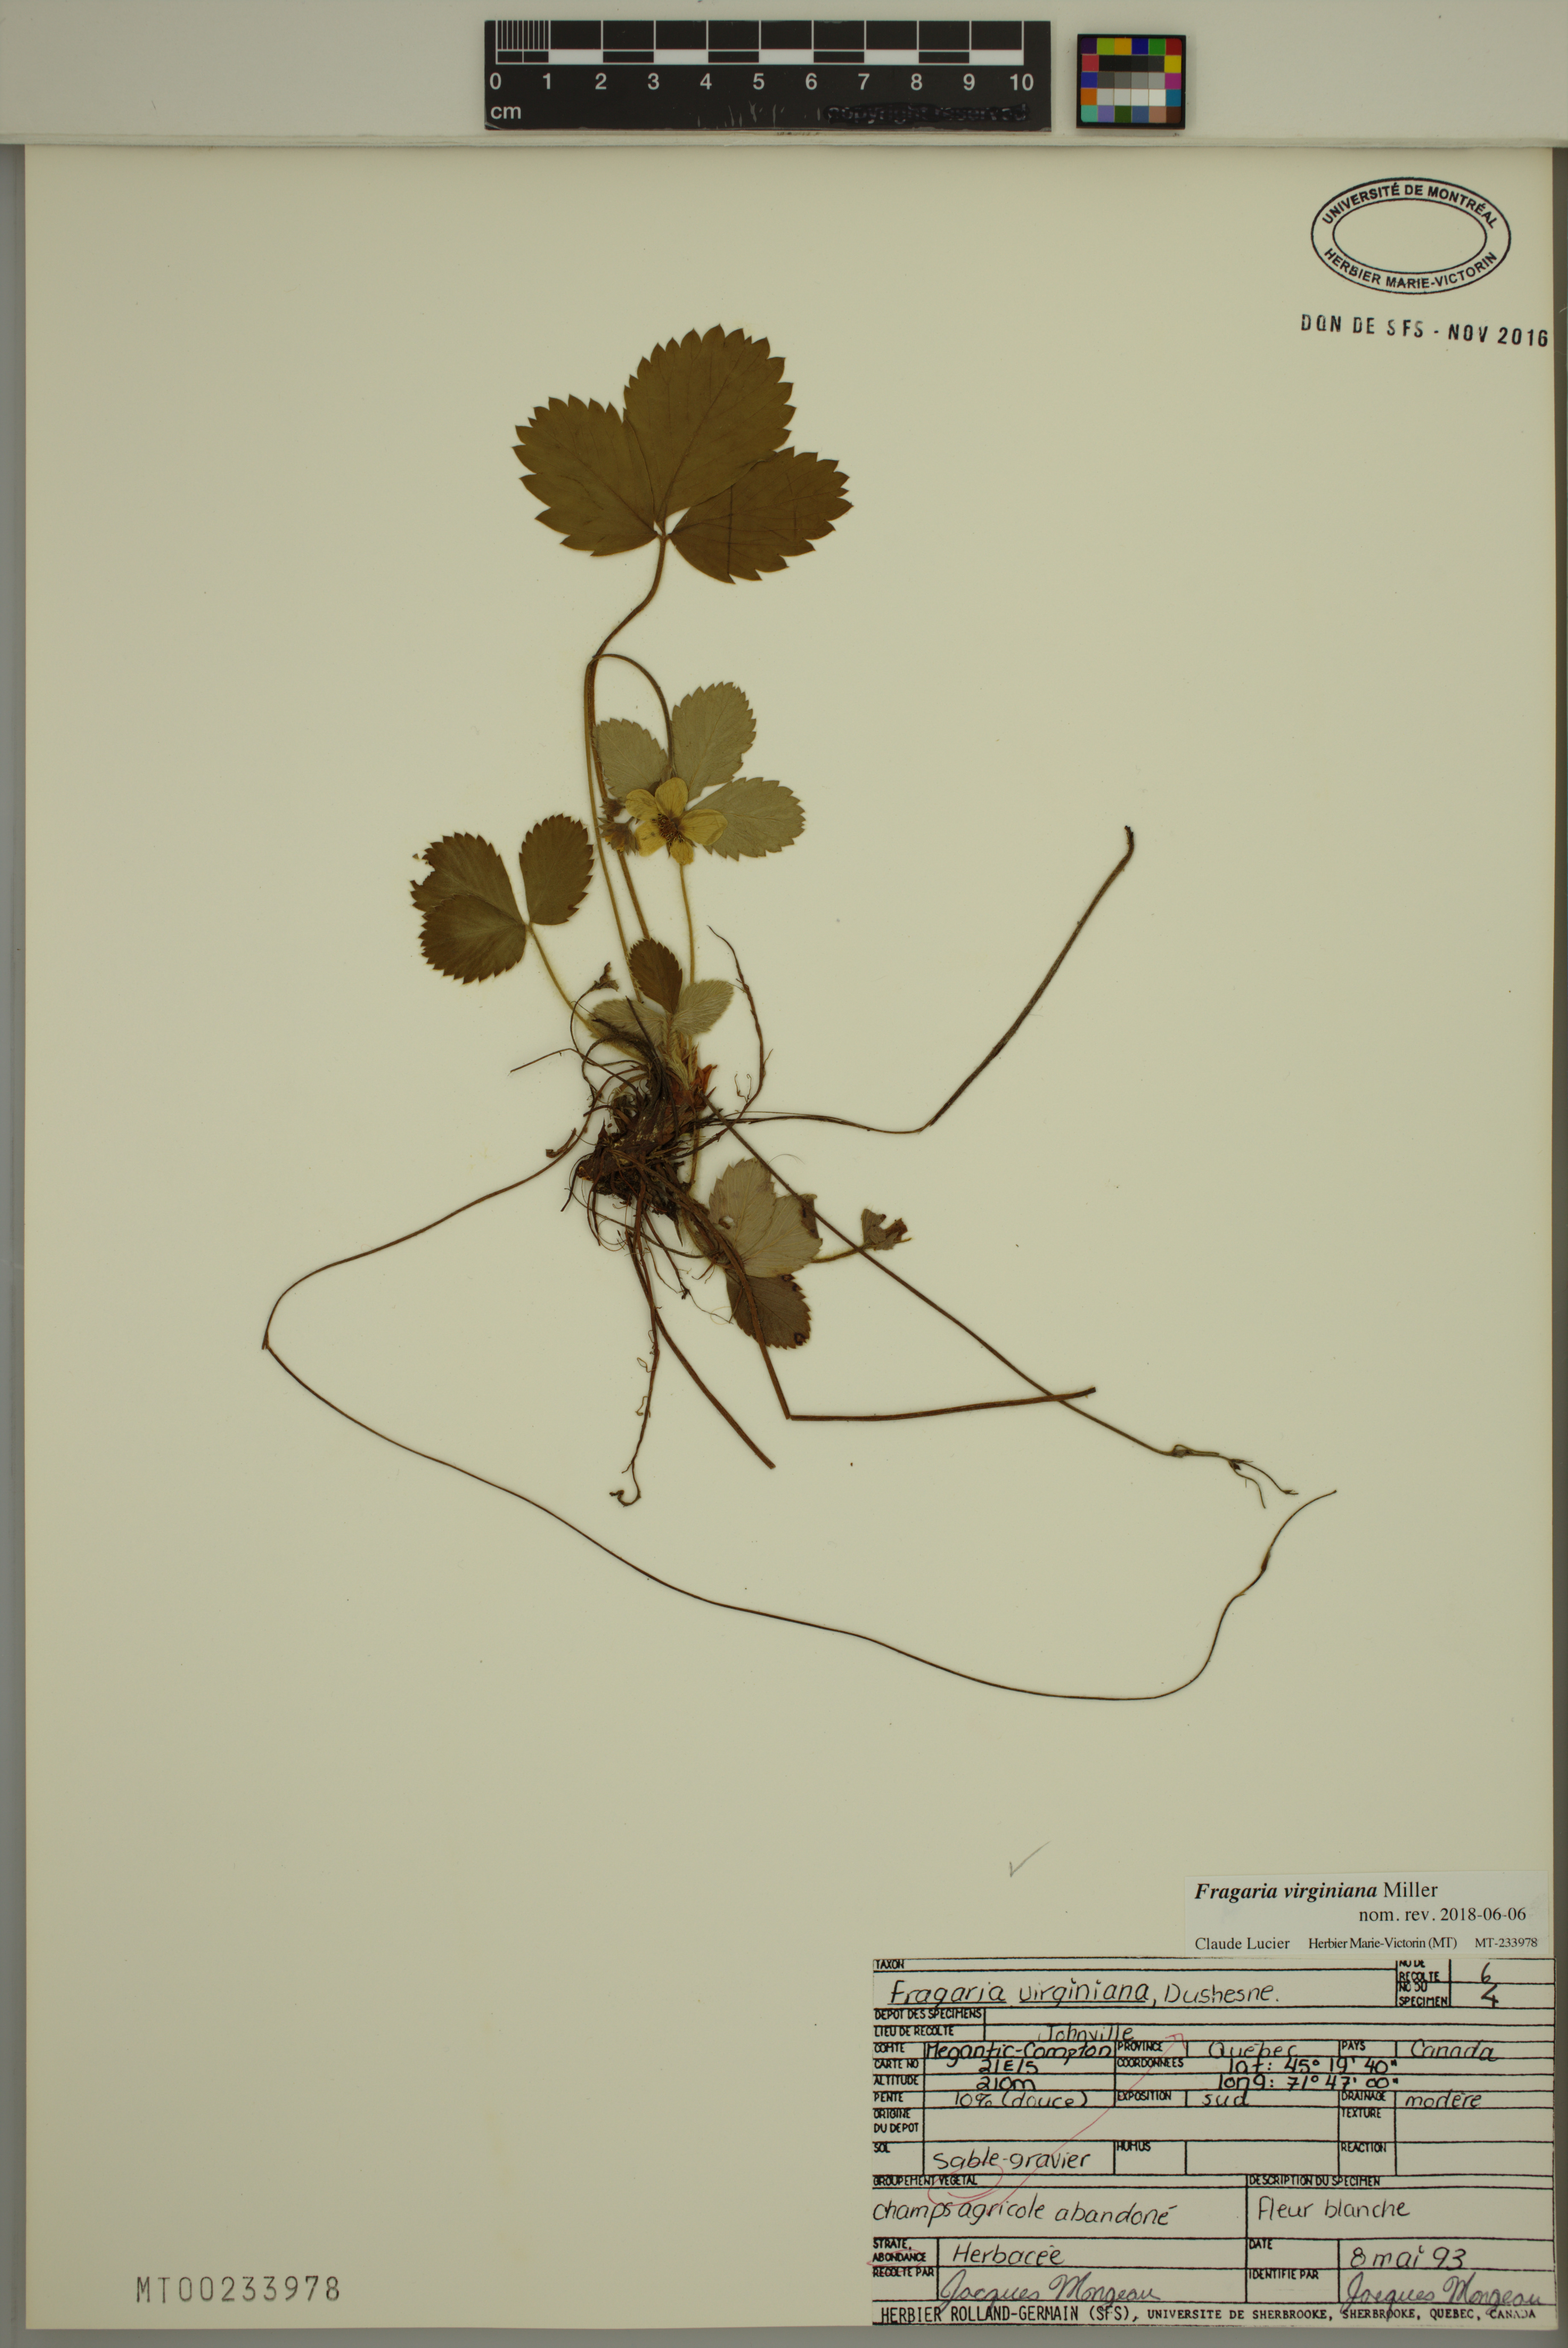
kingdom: Plantae
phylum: Tracheophyta
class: Magnoliopsida
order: Rosales
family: Rosaceae
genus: Fragaria
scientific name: Fragaria virginiana
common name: Thickleaved wild strawberry
